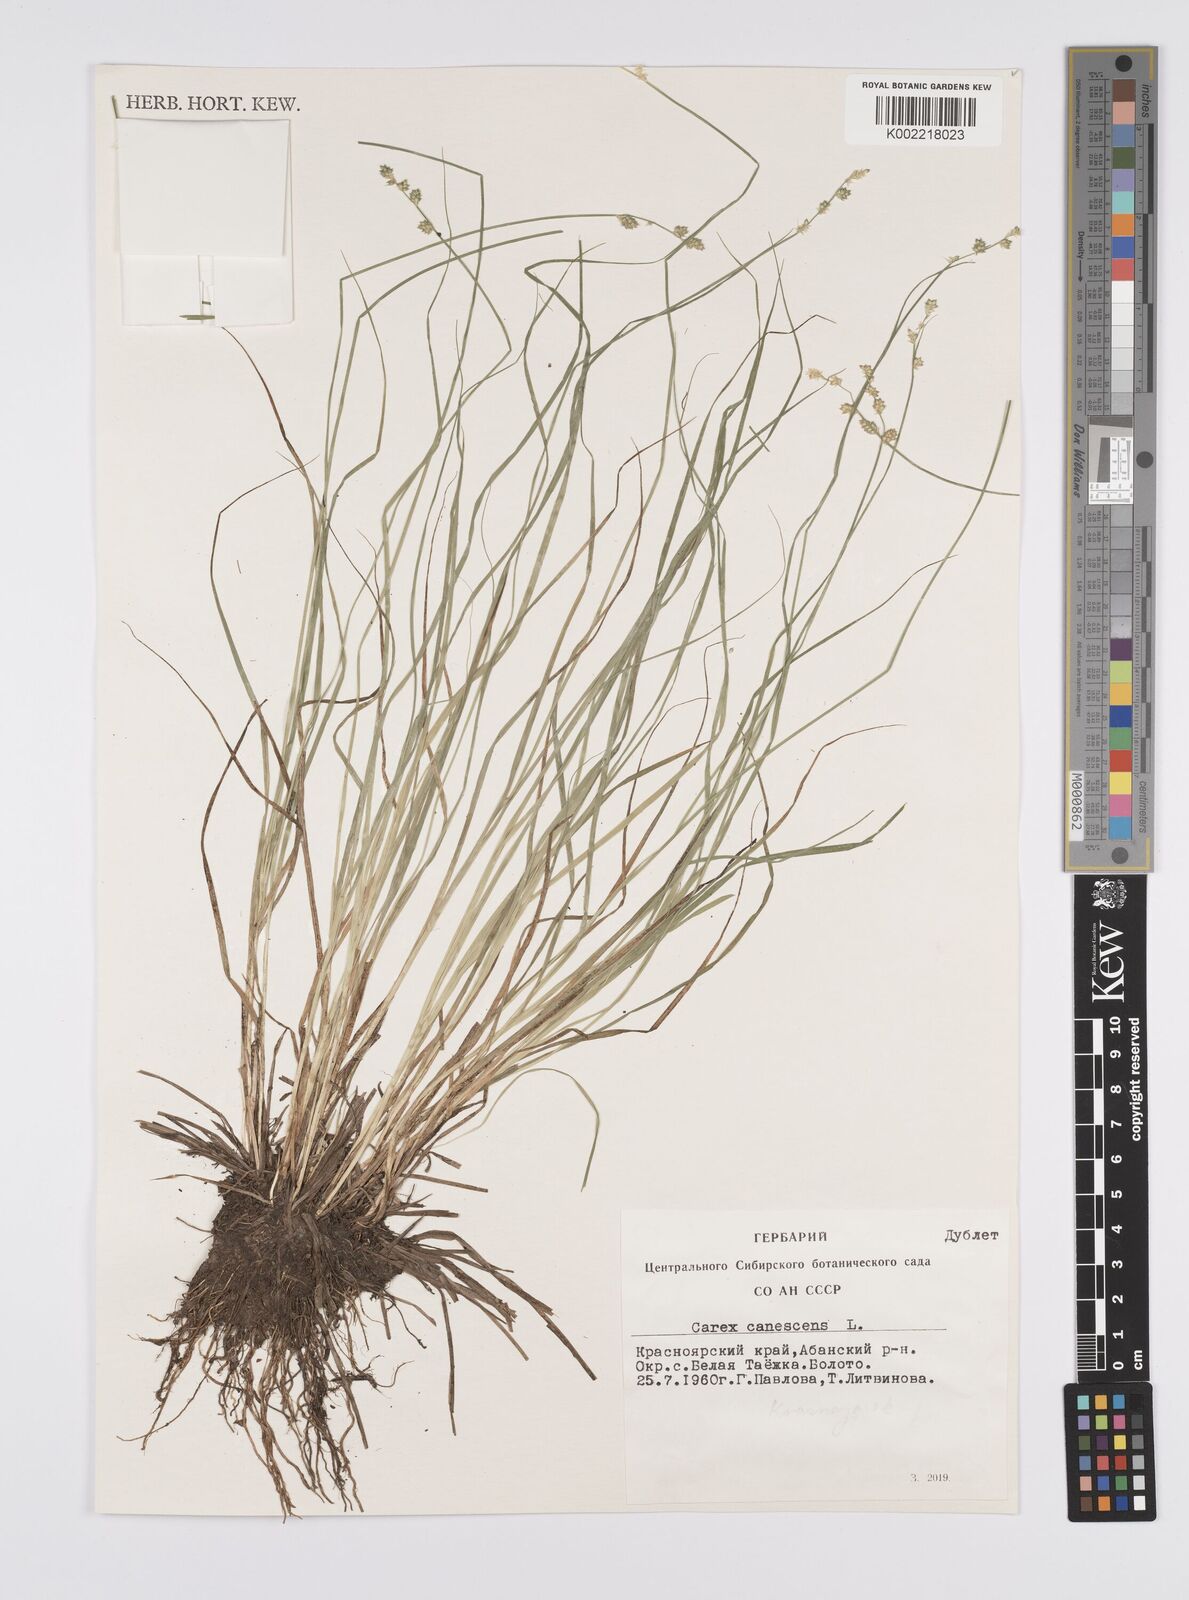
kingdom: Plantae
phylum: Tracheophyta
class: Liliopsida
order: Poales
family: Cyperaceae
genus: Carex
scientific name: Carex canescens
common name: White sedge
